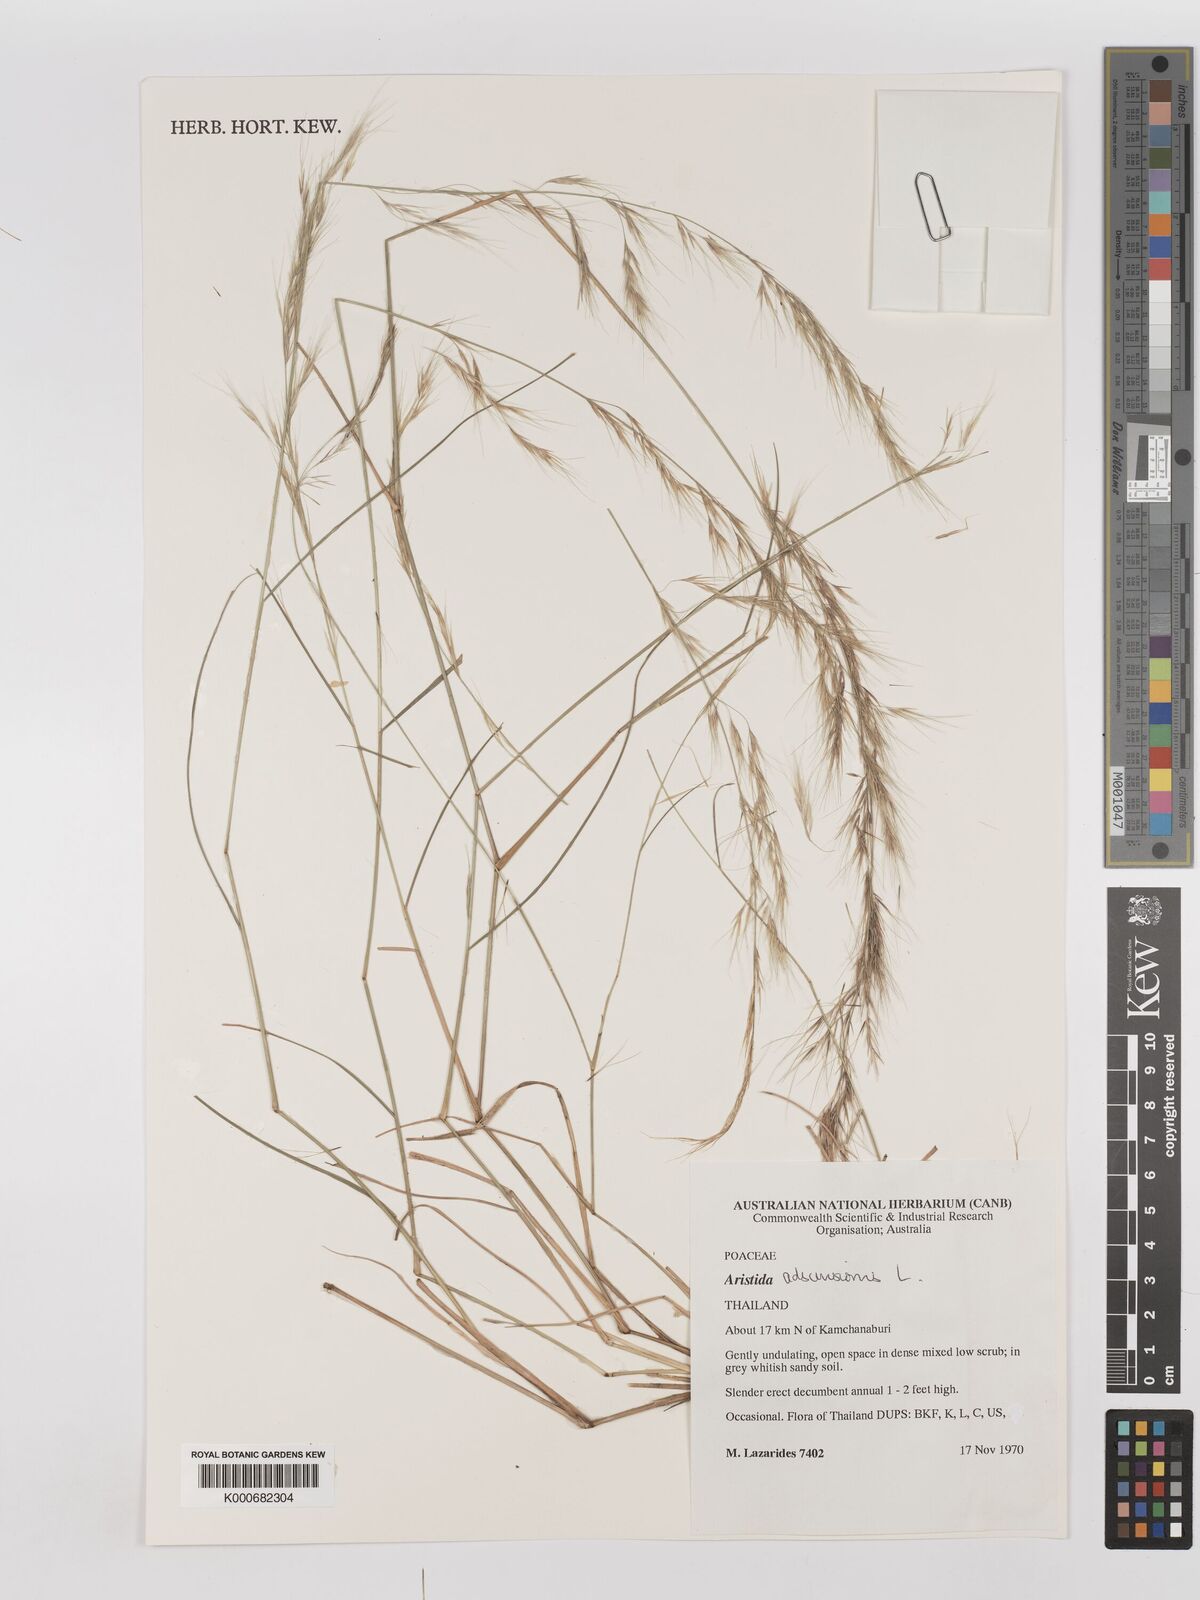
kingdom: Plantae
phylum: Tracheophyta
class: Liliopsida
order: Poales
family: Poaceae
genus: Aristida
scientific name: Aristida adscensionis
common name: Sixweeks threeawn
